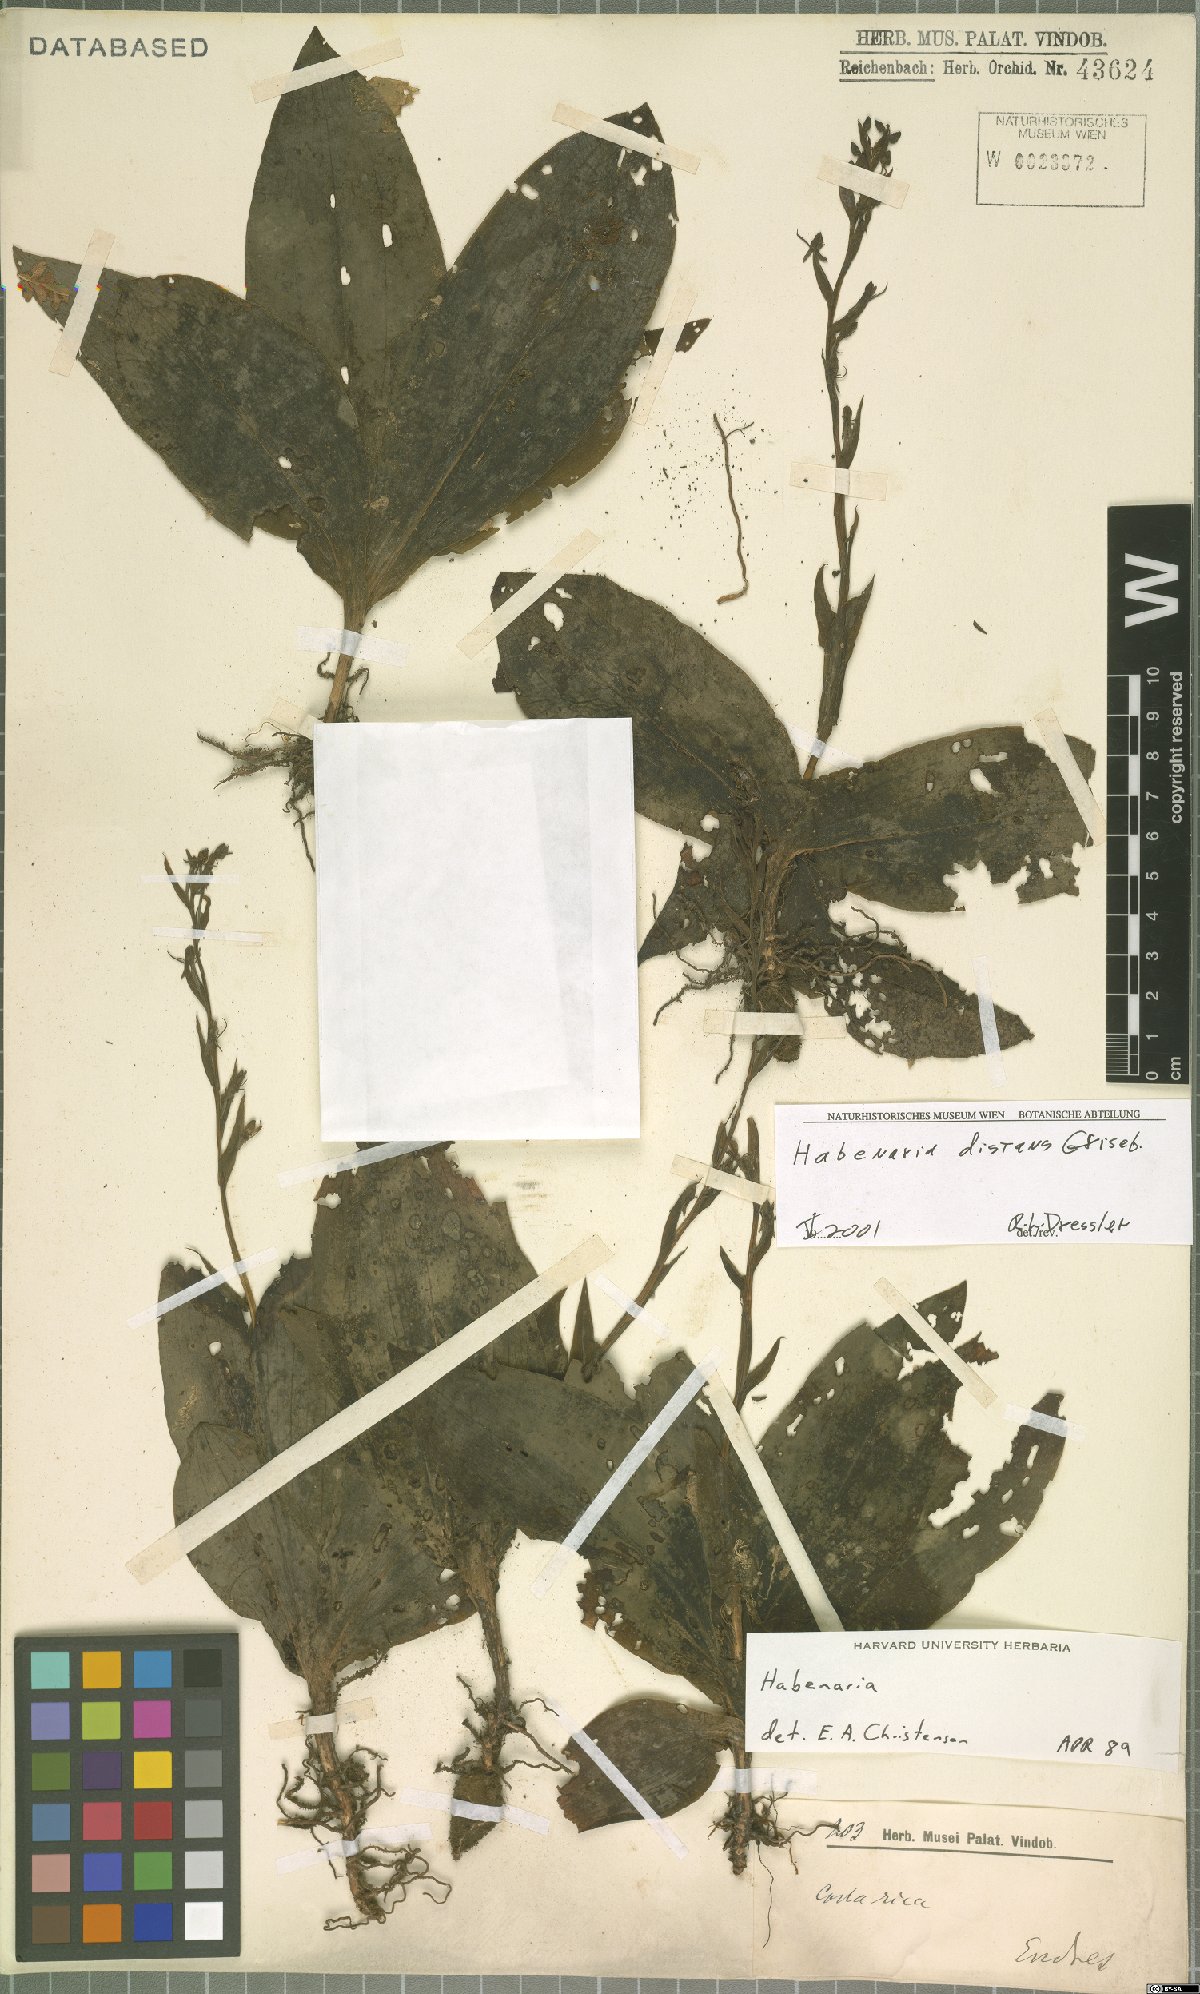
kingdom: Plantae
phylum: Tracheophyta
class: Liliopsida
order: Asparagales
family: Orchidaceae
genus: Habenaria
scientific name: Habenaria distans
